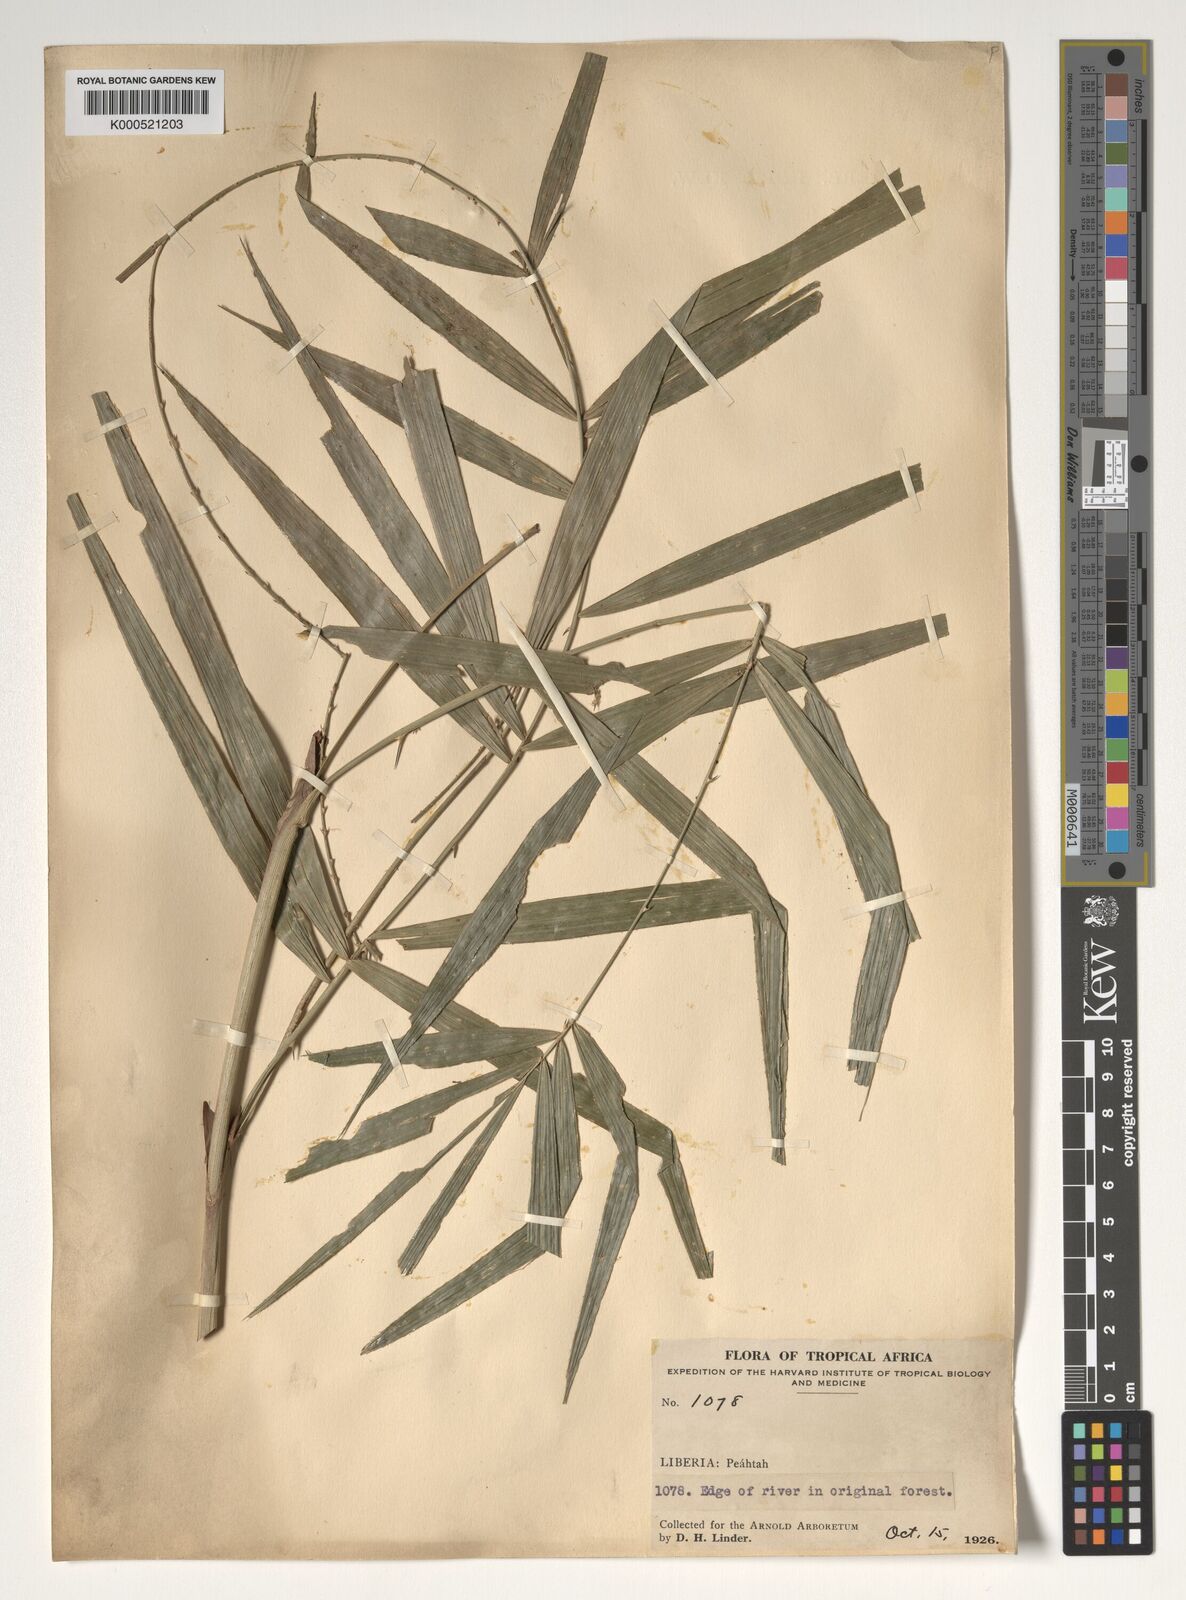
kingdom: Plantae
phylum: Tracheophyta
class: Liliopsida
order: Arecales
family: Arecaceae
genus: Calamus
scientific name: Calamus deerratus
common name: Rattan
